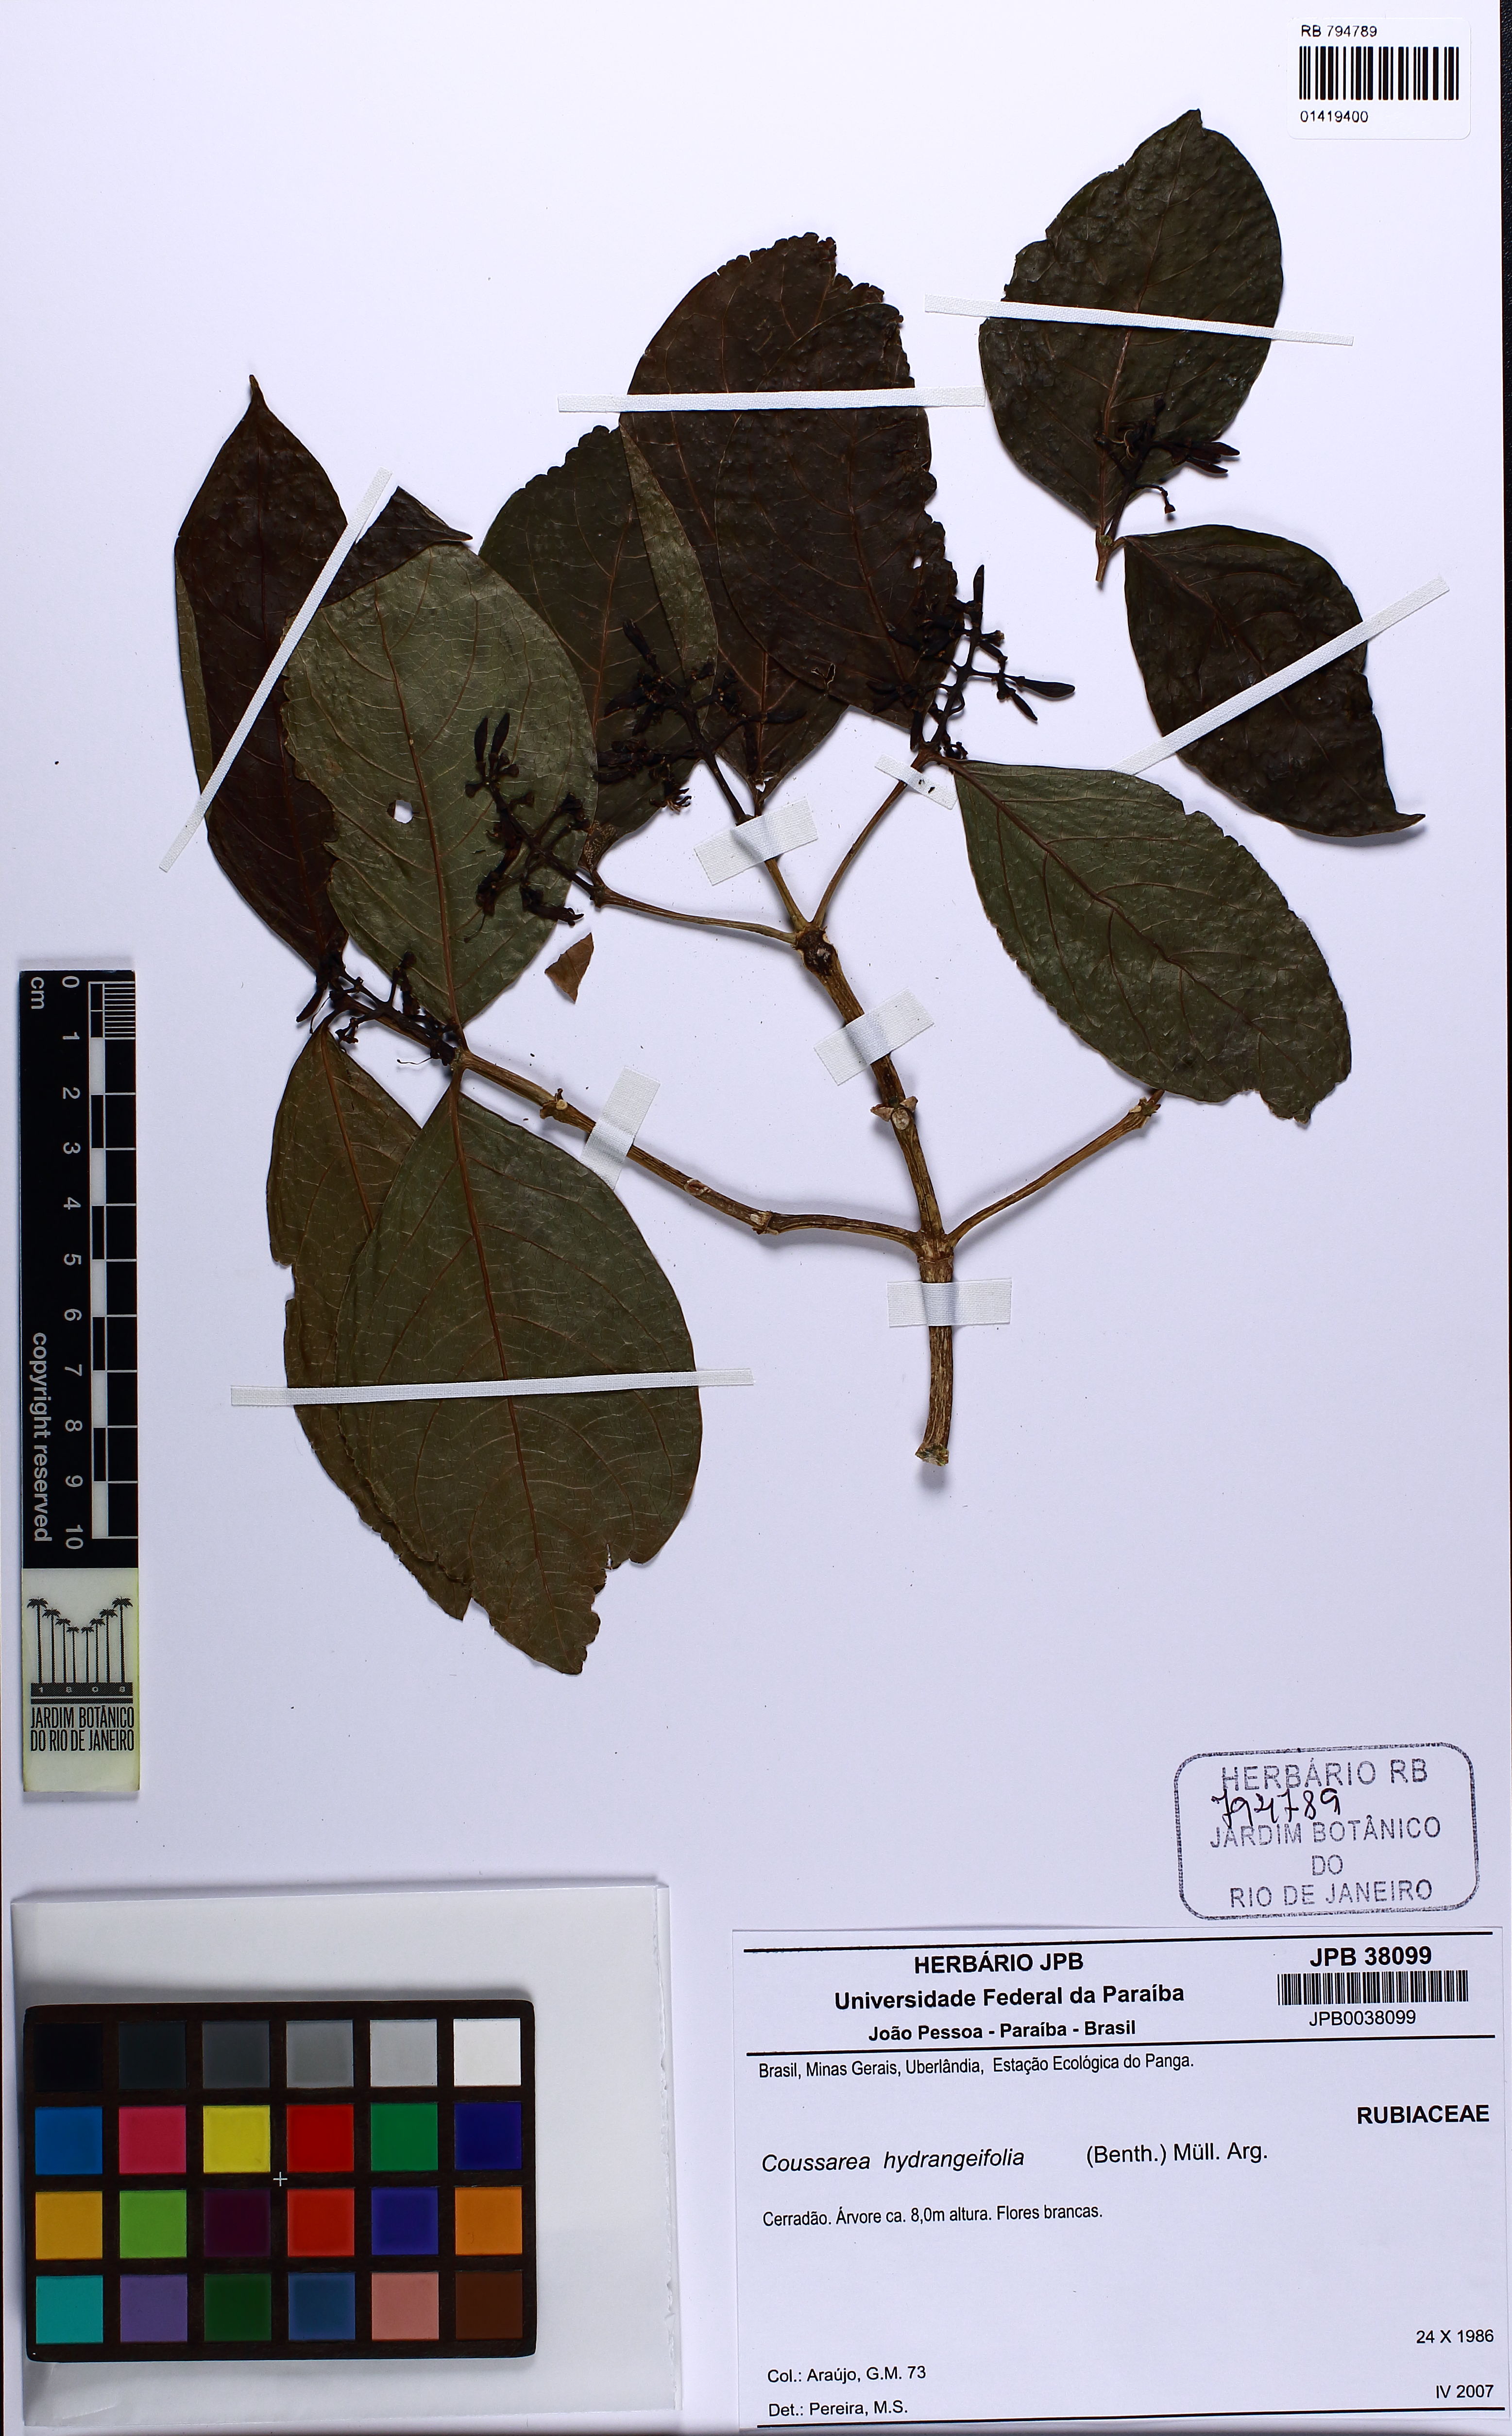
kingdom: Plantae
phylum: Tracheophyta
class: Magnoliopsida
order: Gentianales
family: Rubiaceae
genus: Coussarea
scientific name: Coussarea hydrangeifolia
